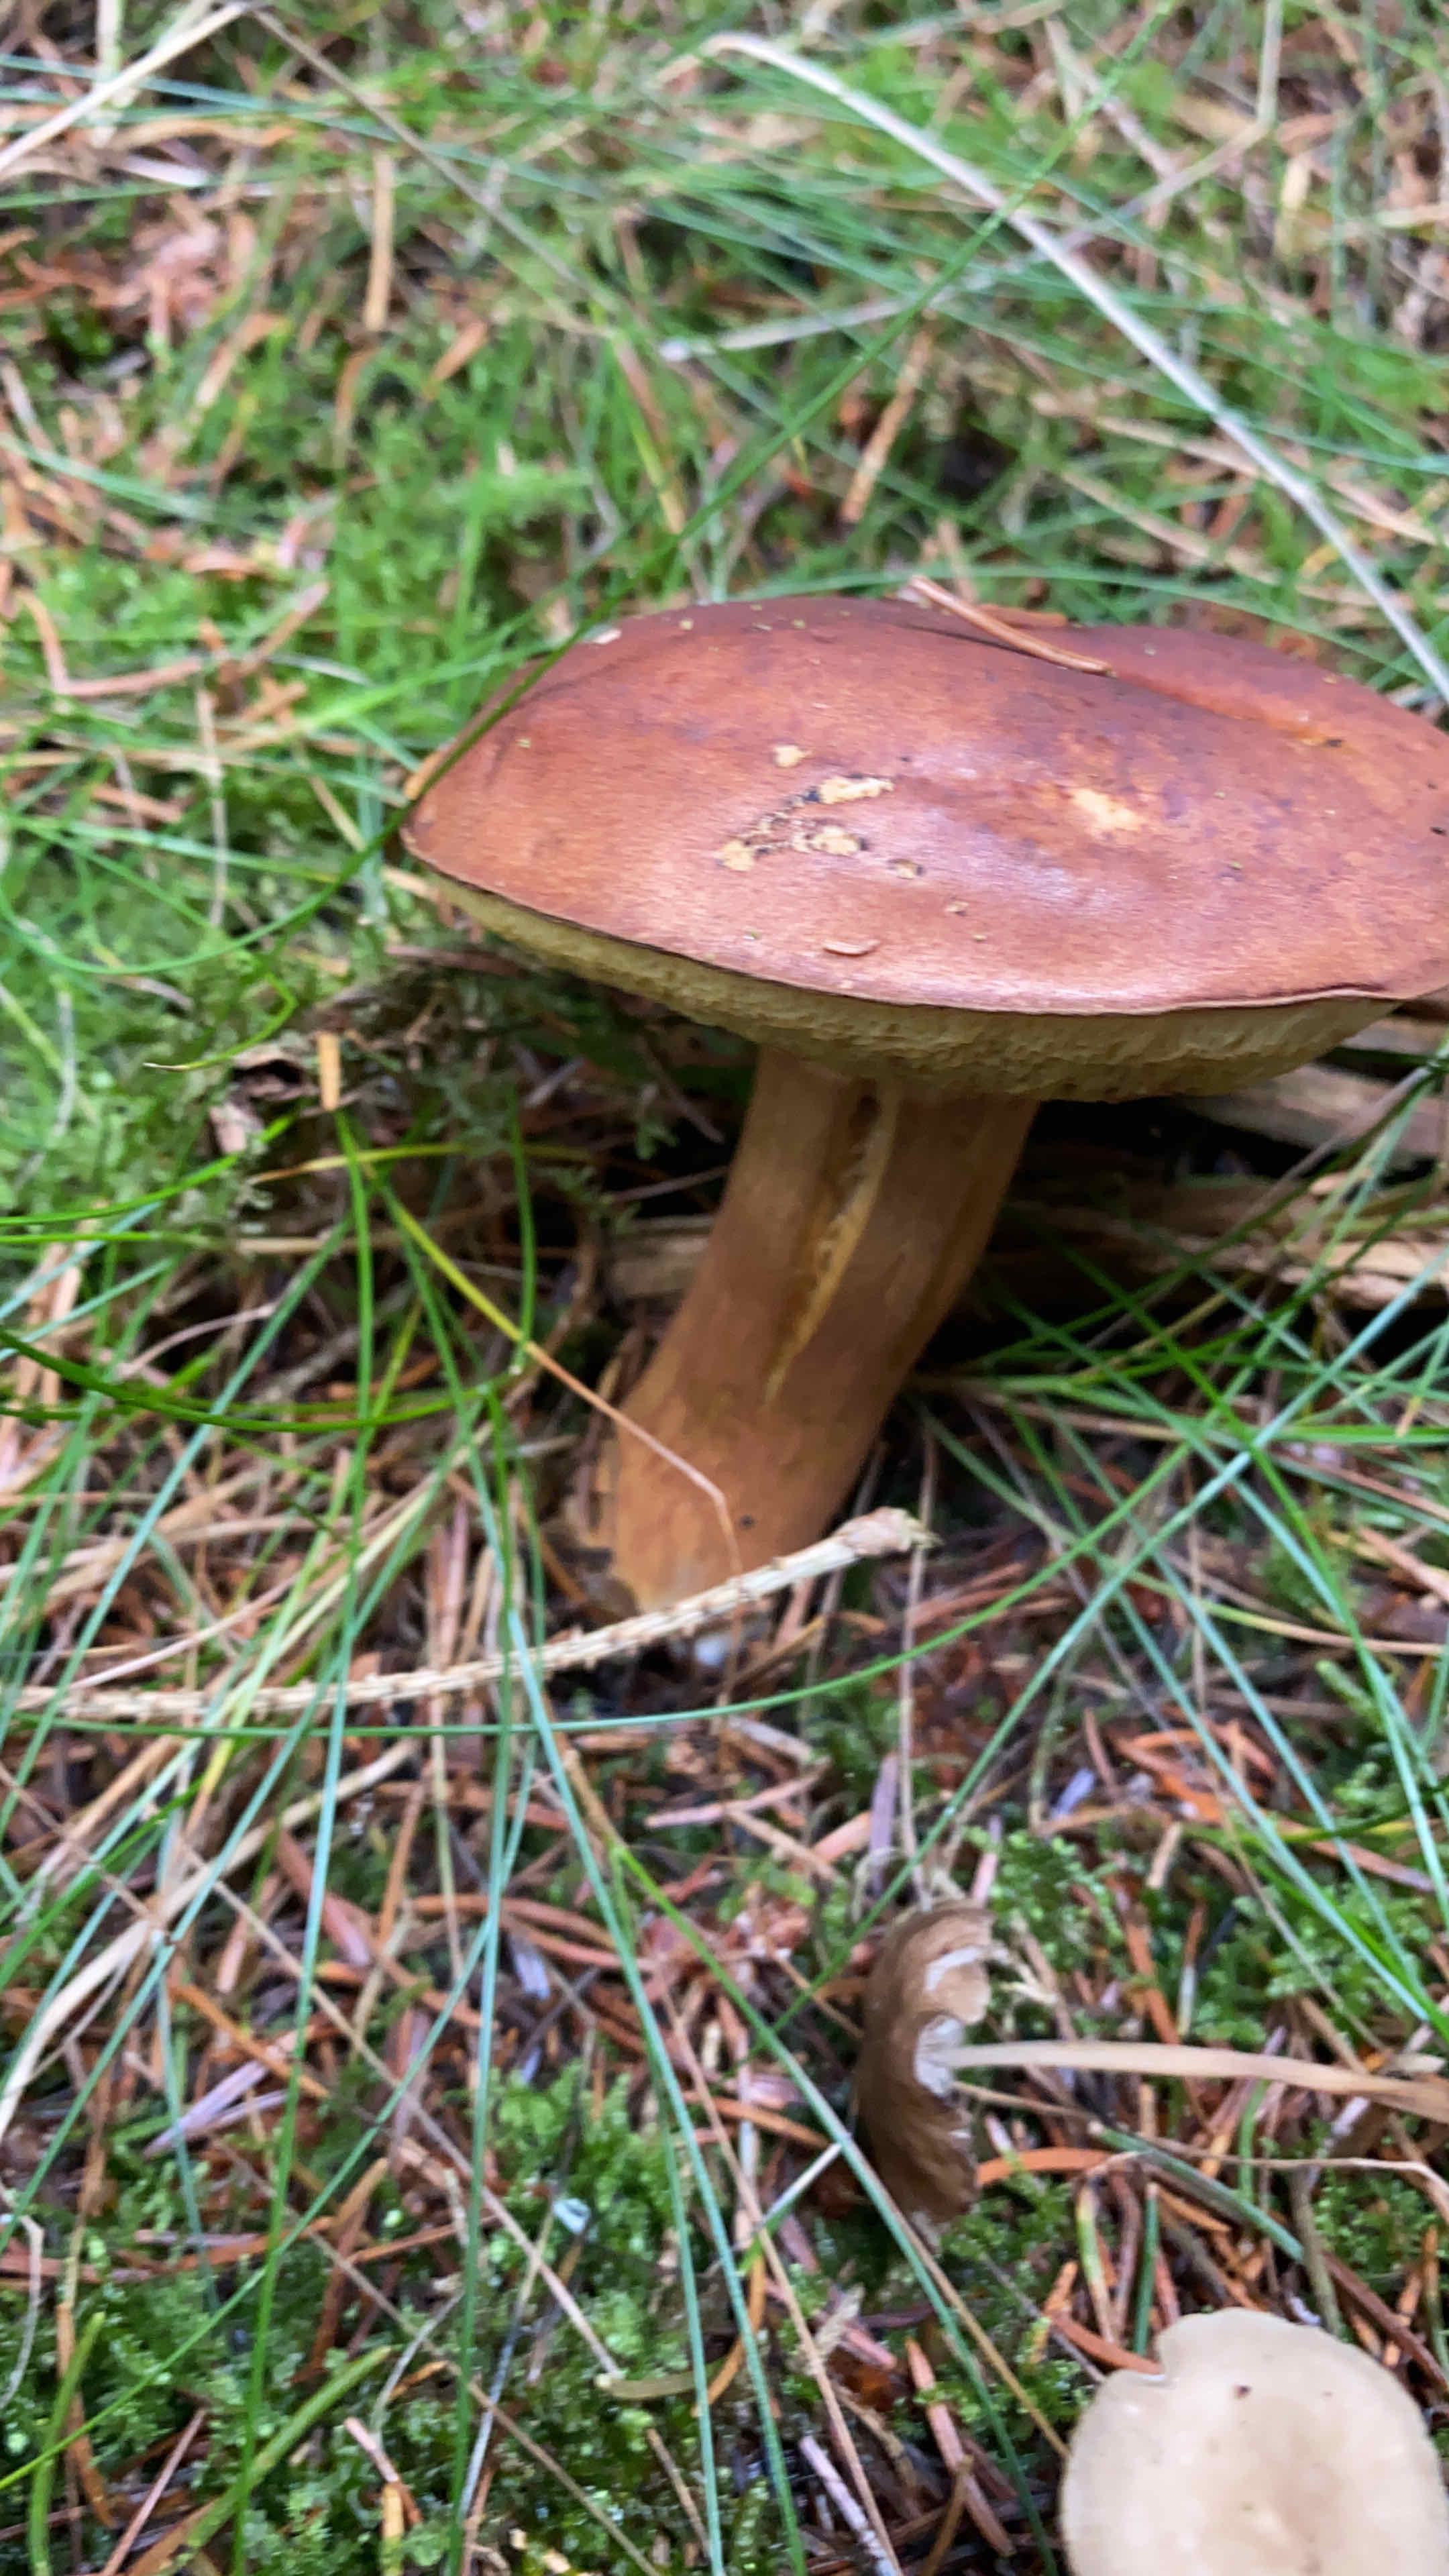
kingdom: Fungi
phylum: Basidiomycota
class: Agaricomycetes
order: Boletales
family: Boletaceae
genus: Imleria
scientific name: Imleria badia
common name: brunstokket rørhat
